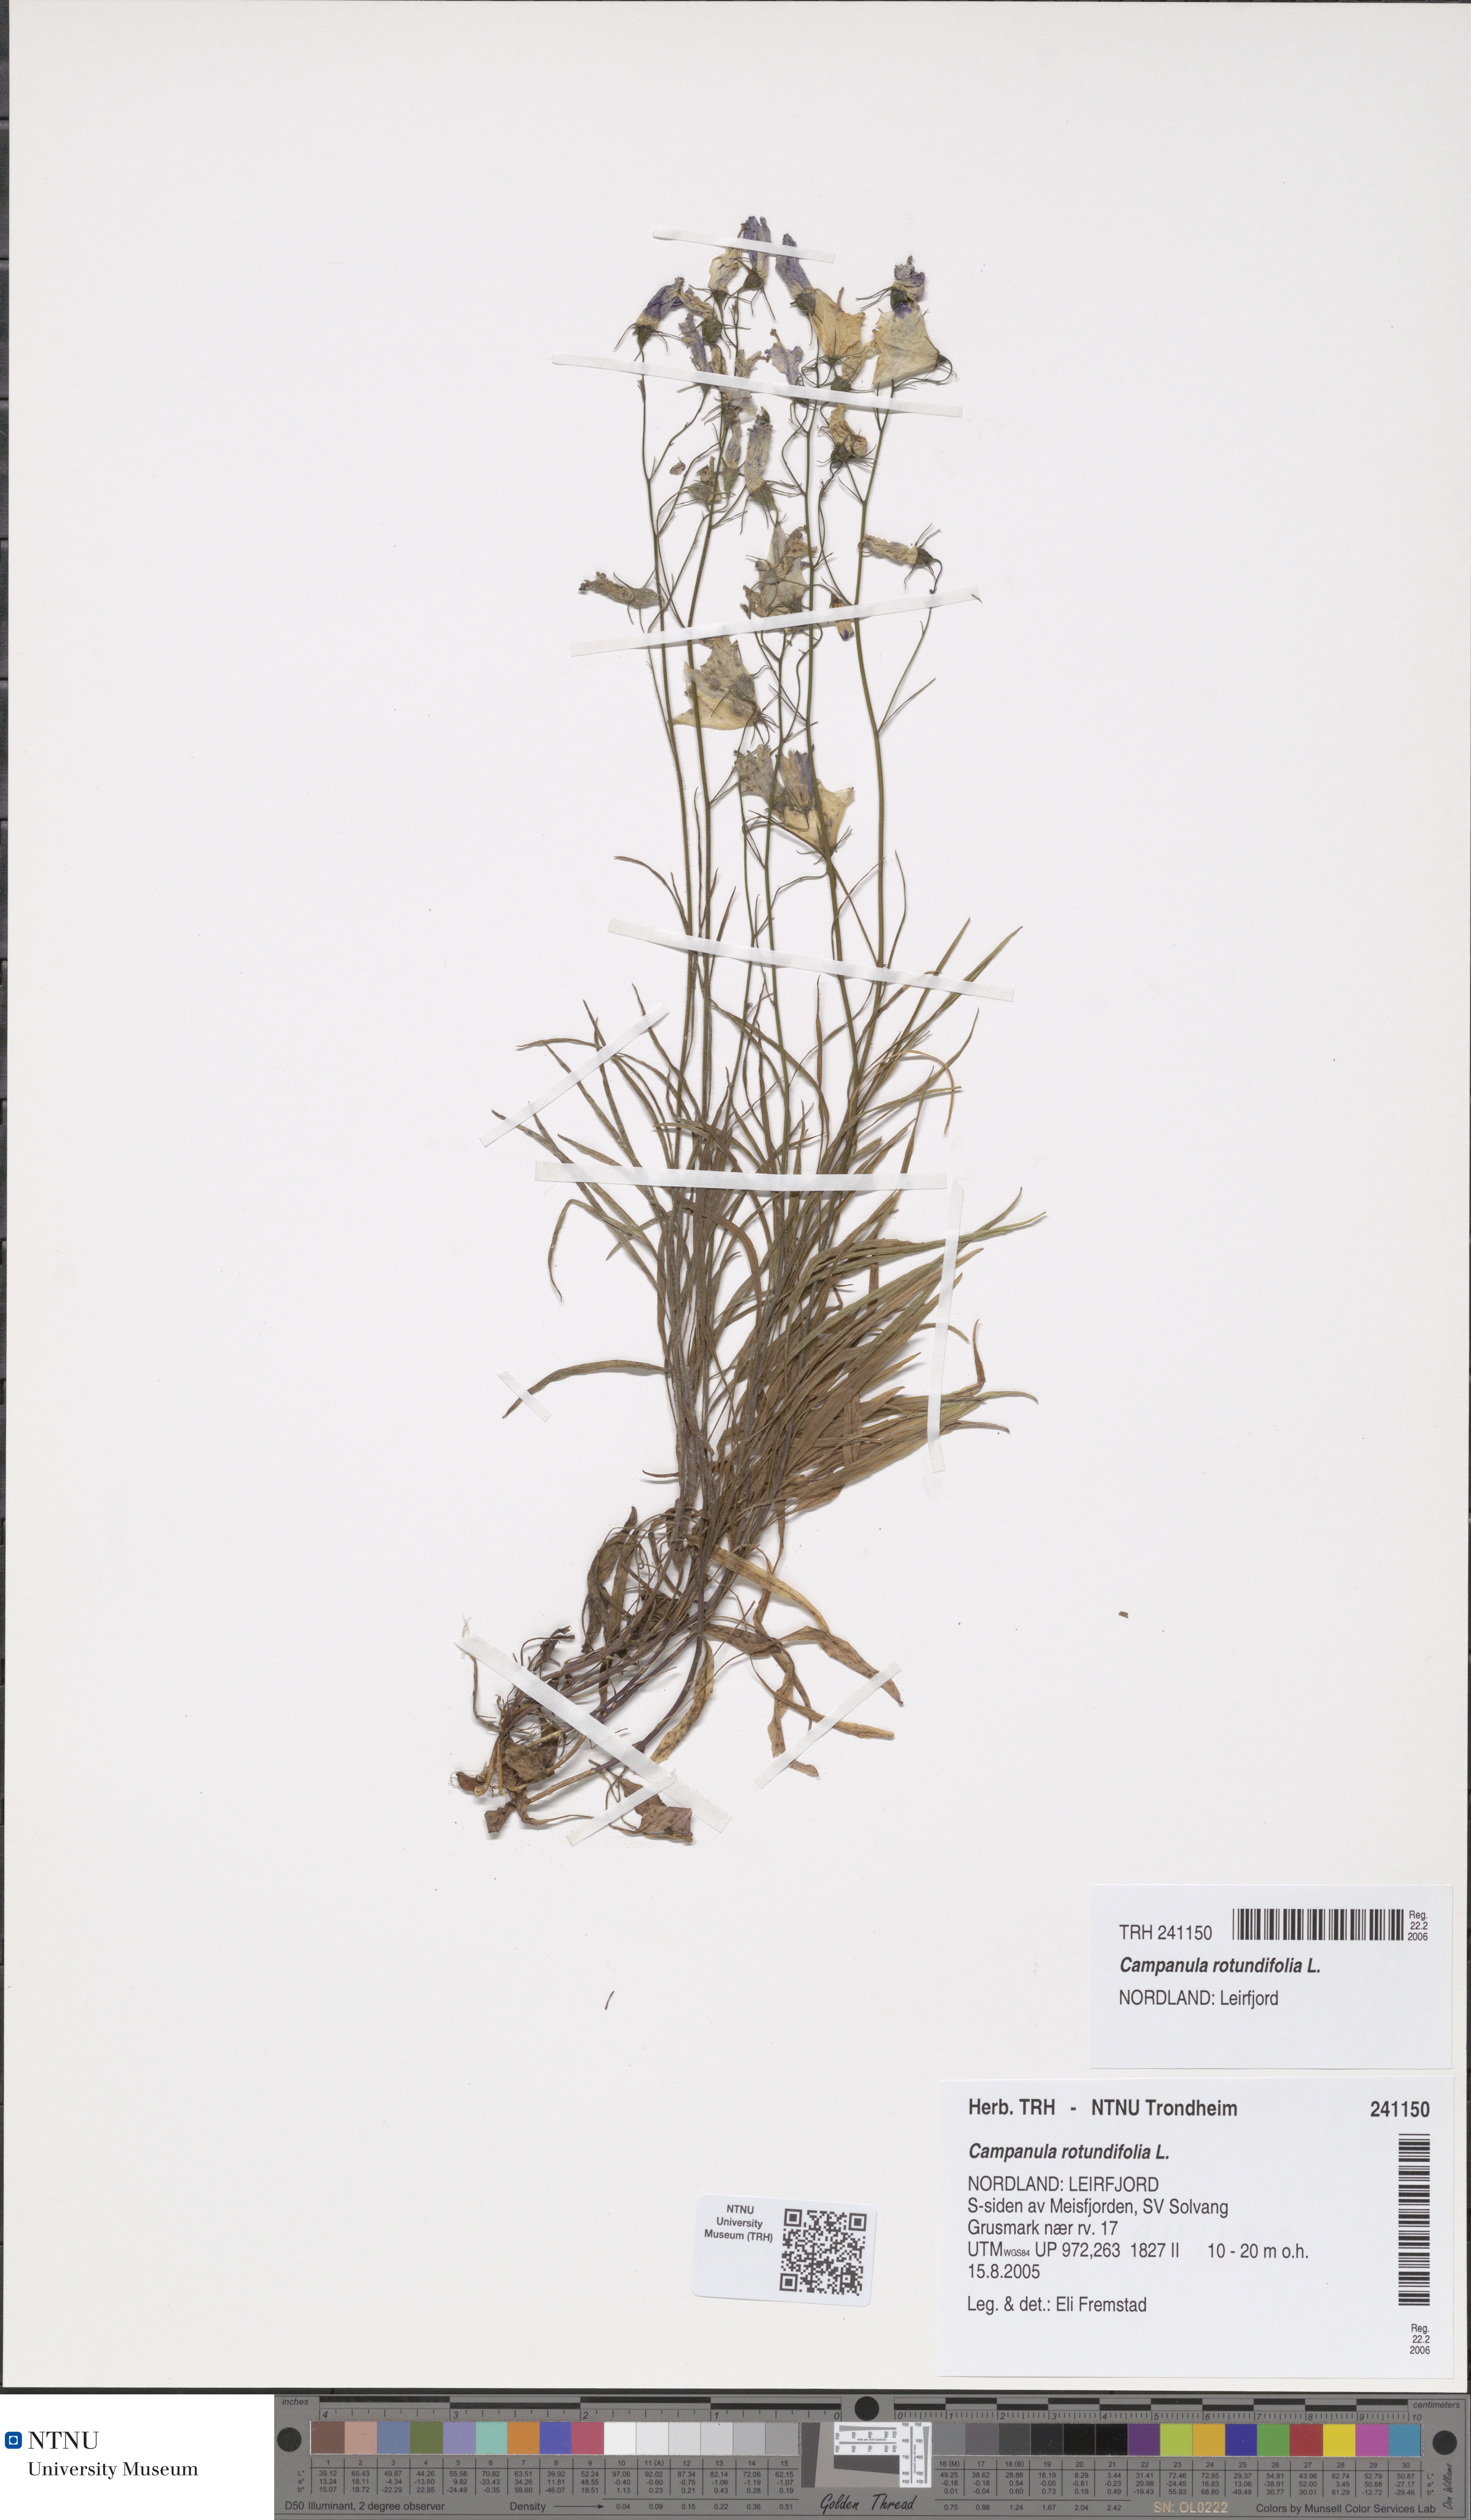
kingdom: Plantae
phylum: Tracheophyta
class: Magnoliopsida
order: Asterales
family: Campanulaceae
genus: Campanula
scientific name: Campanula rotundifolia
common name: Harebell
